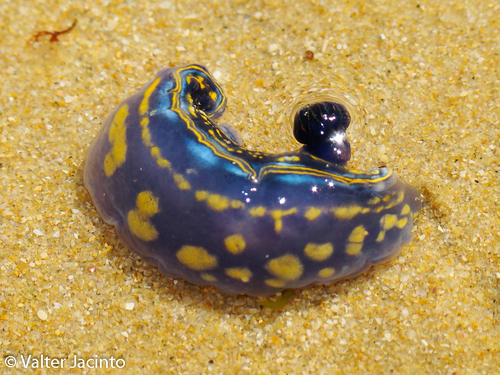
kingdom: Animalia
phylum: Mollusca
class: Gastropoda
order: Nudibranchia
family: Chromodorididae
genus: Felimare
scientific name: Felimare cantabrica
